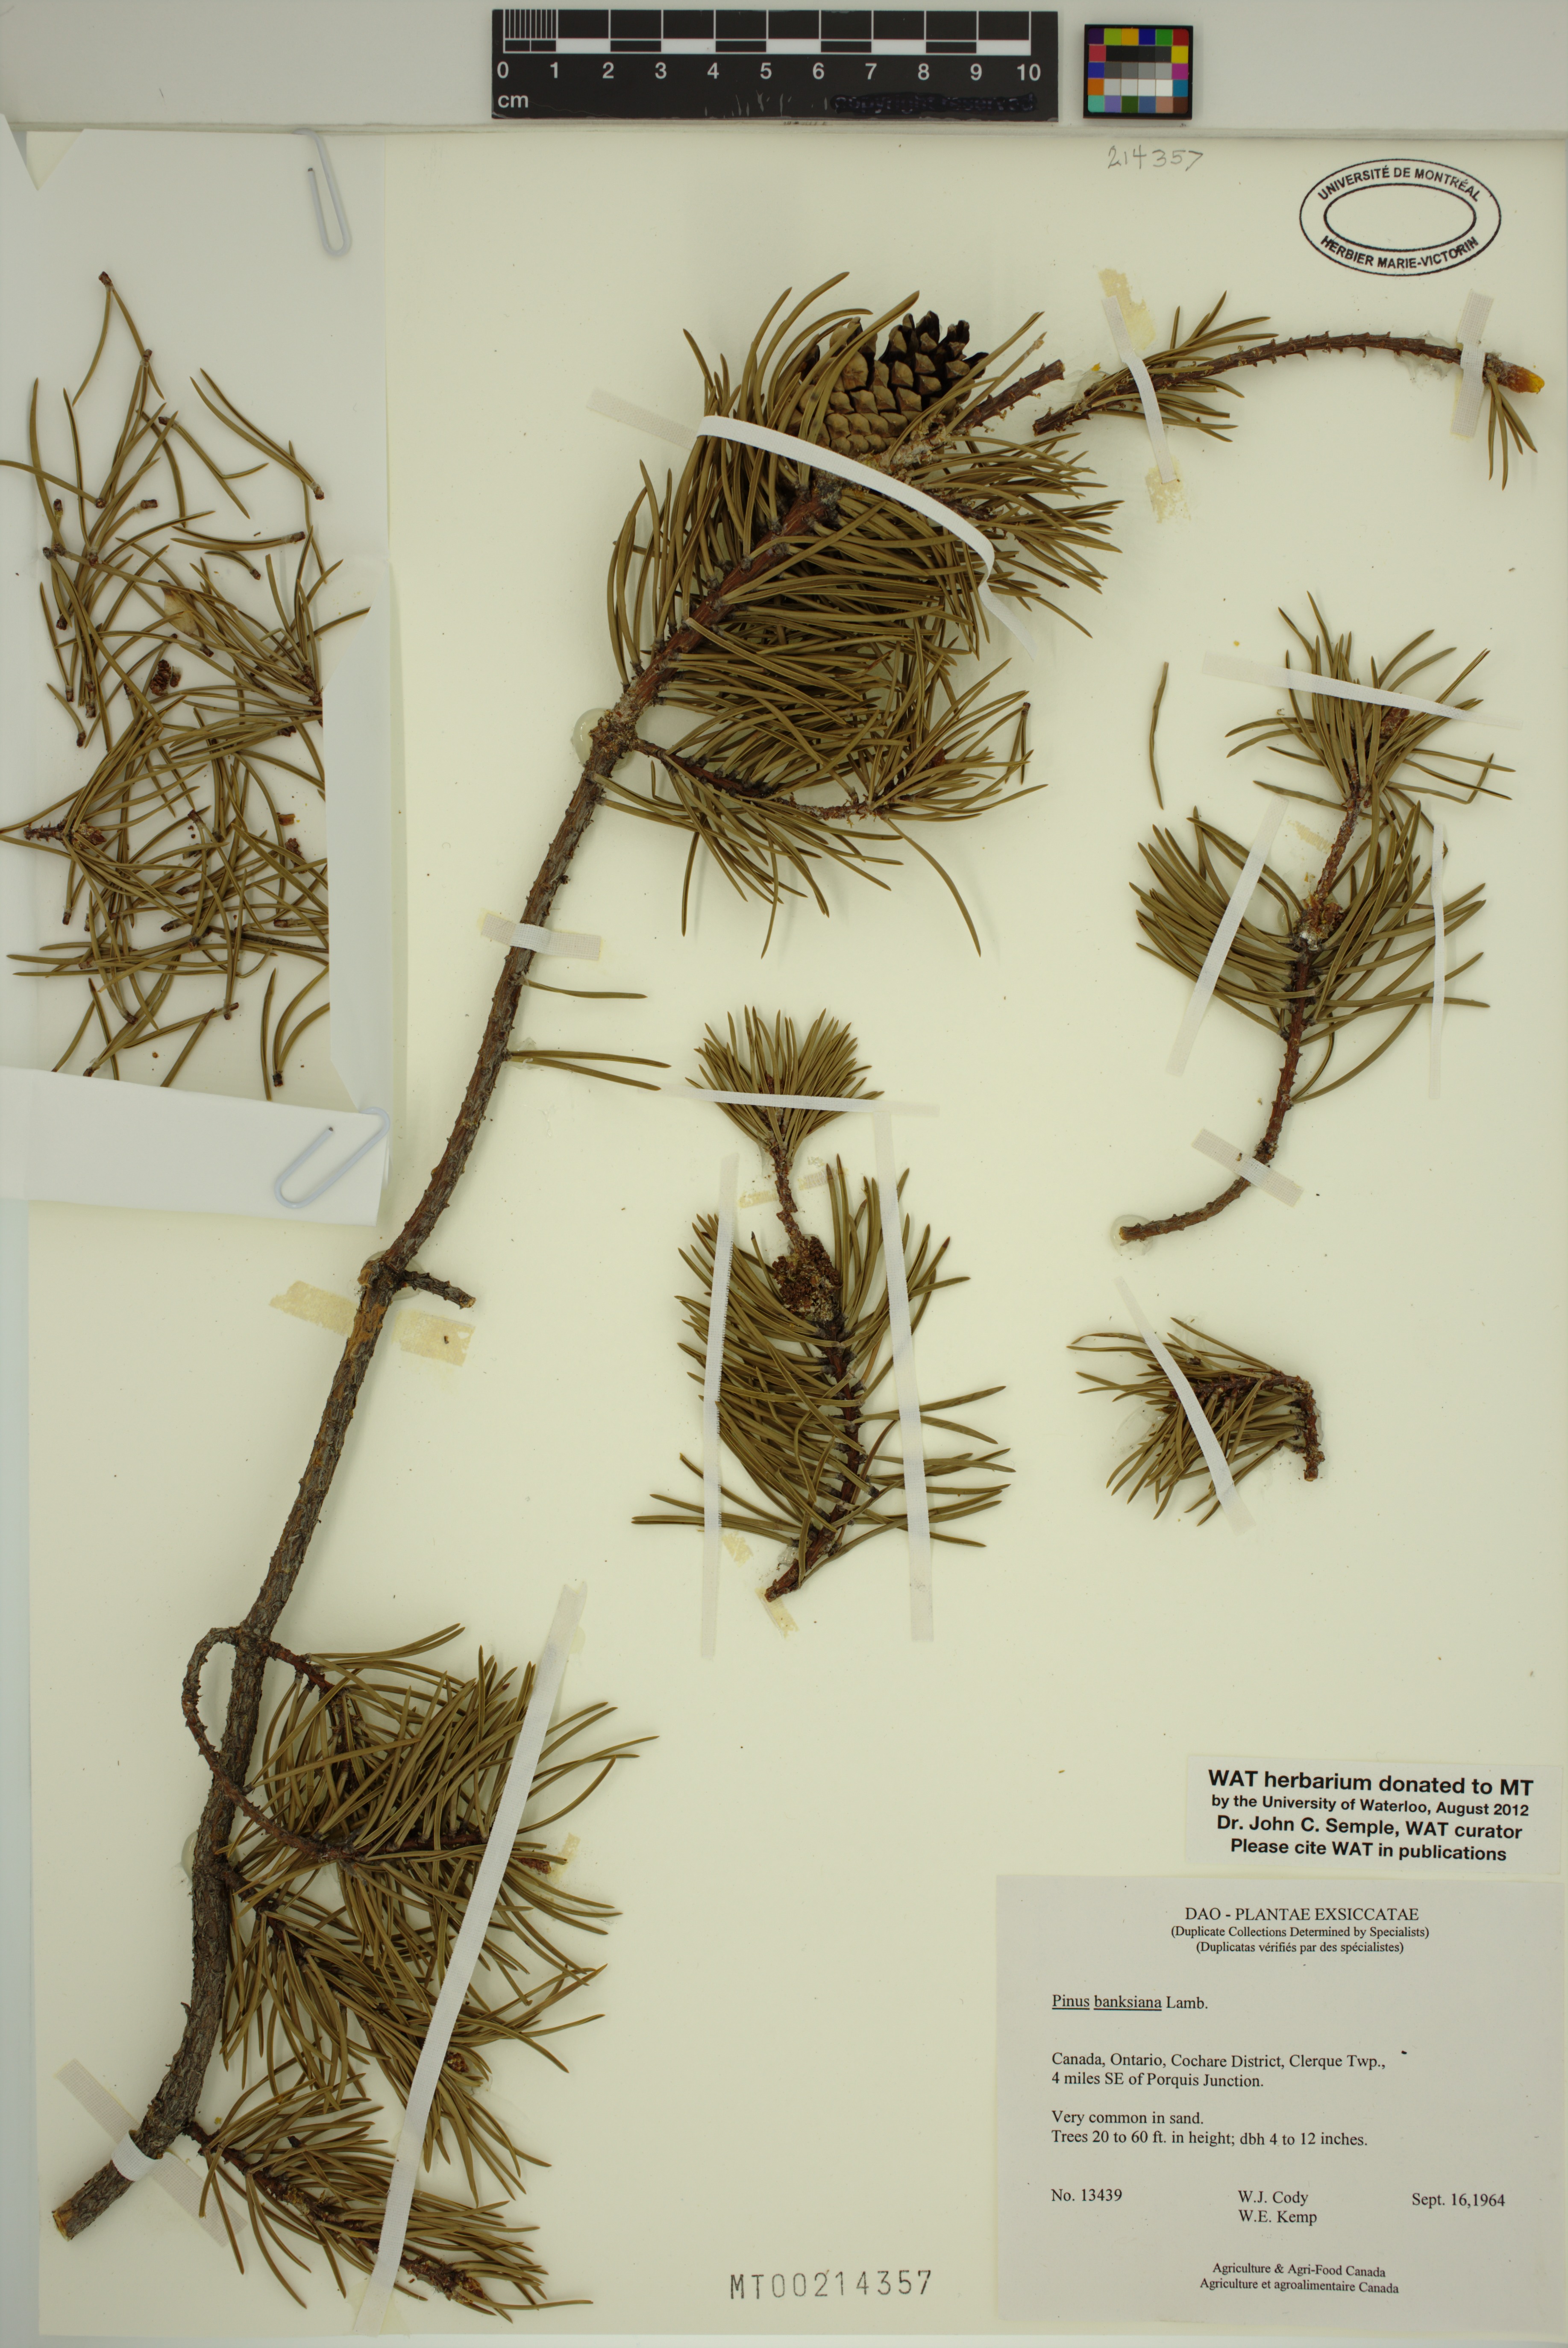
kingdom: Plantae
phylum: Tracheophyta
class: Pinopsida
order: Pinales
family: Pinaceae
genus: Pinus
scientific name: Pinus banksiana
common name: Jack pine
